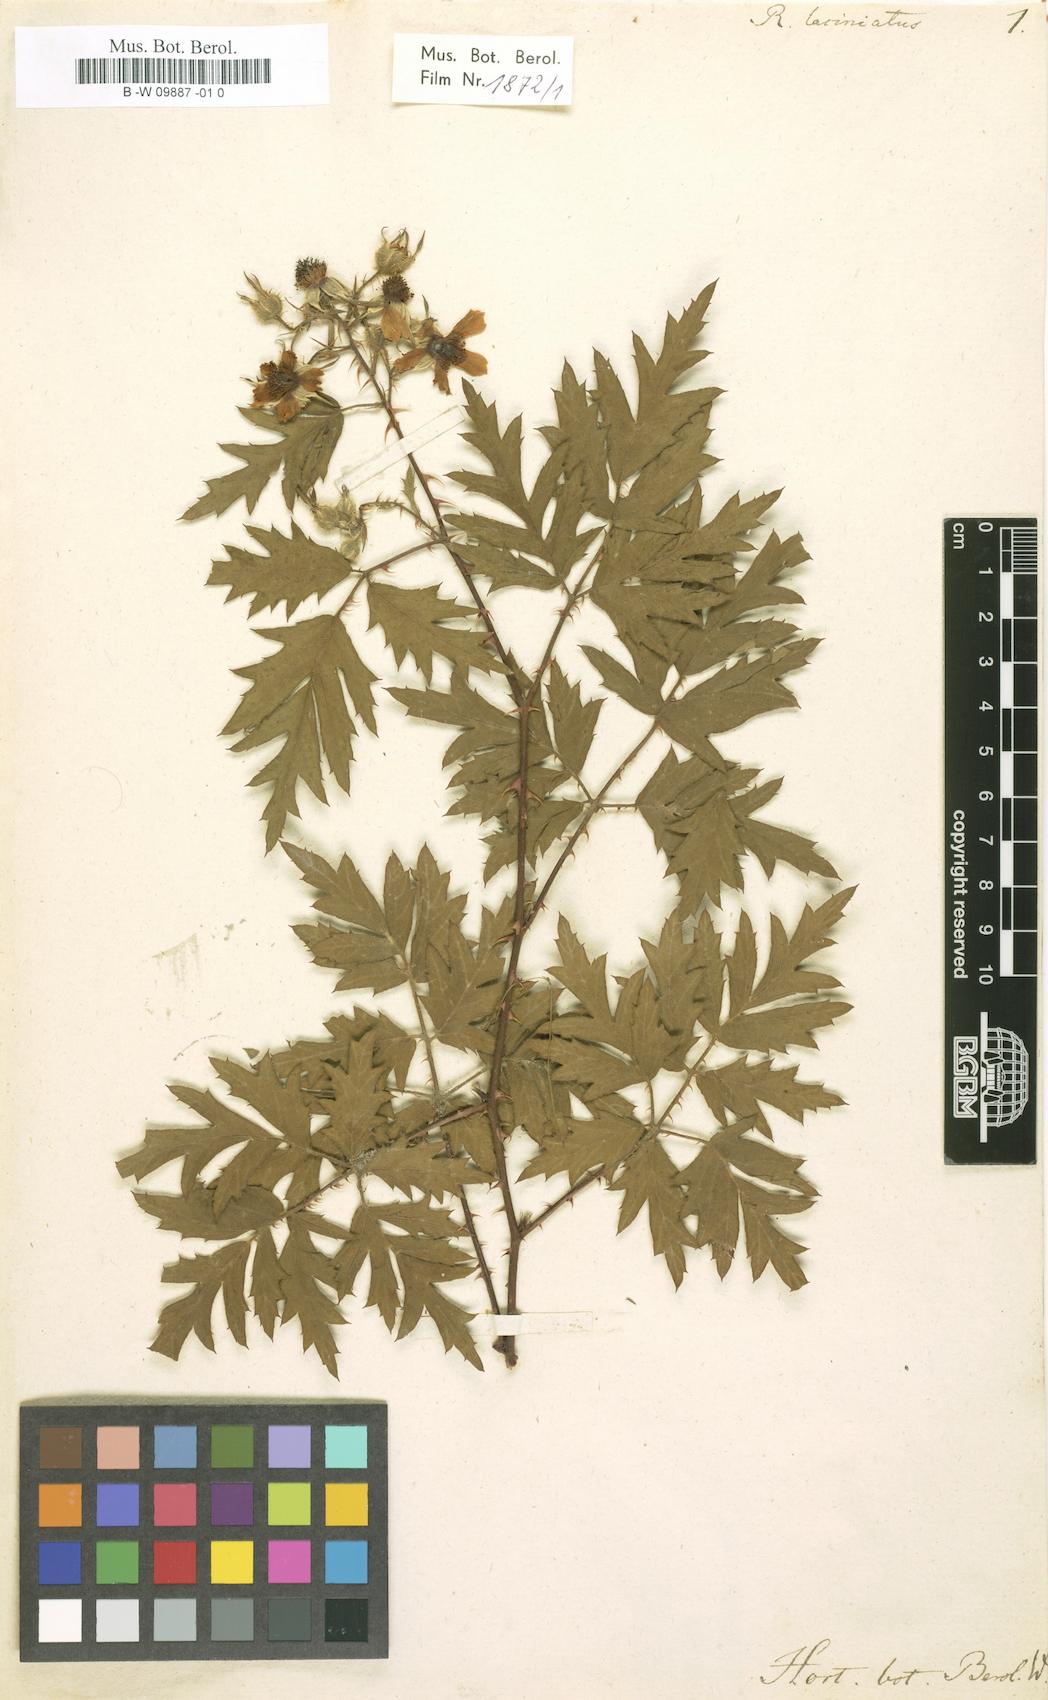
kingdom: Plantae
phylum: Tracheophyta
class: Magnoliopsida
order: Rosales
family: Rosaceae
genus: Rubus
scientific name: Rubus laciniatus
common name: Evergreen blackberry
